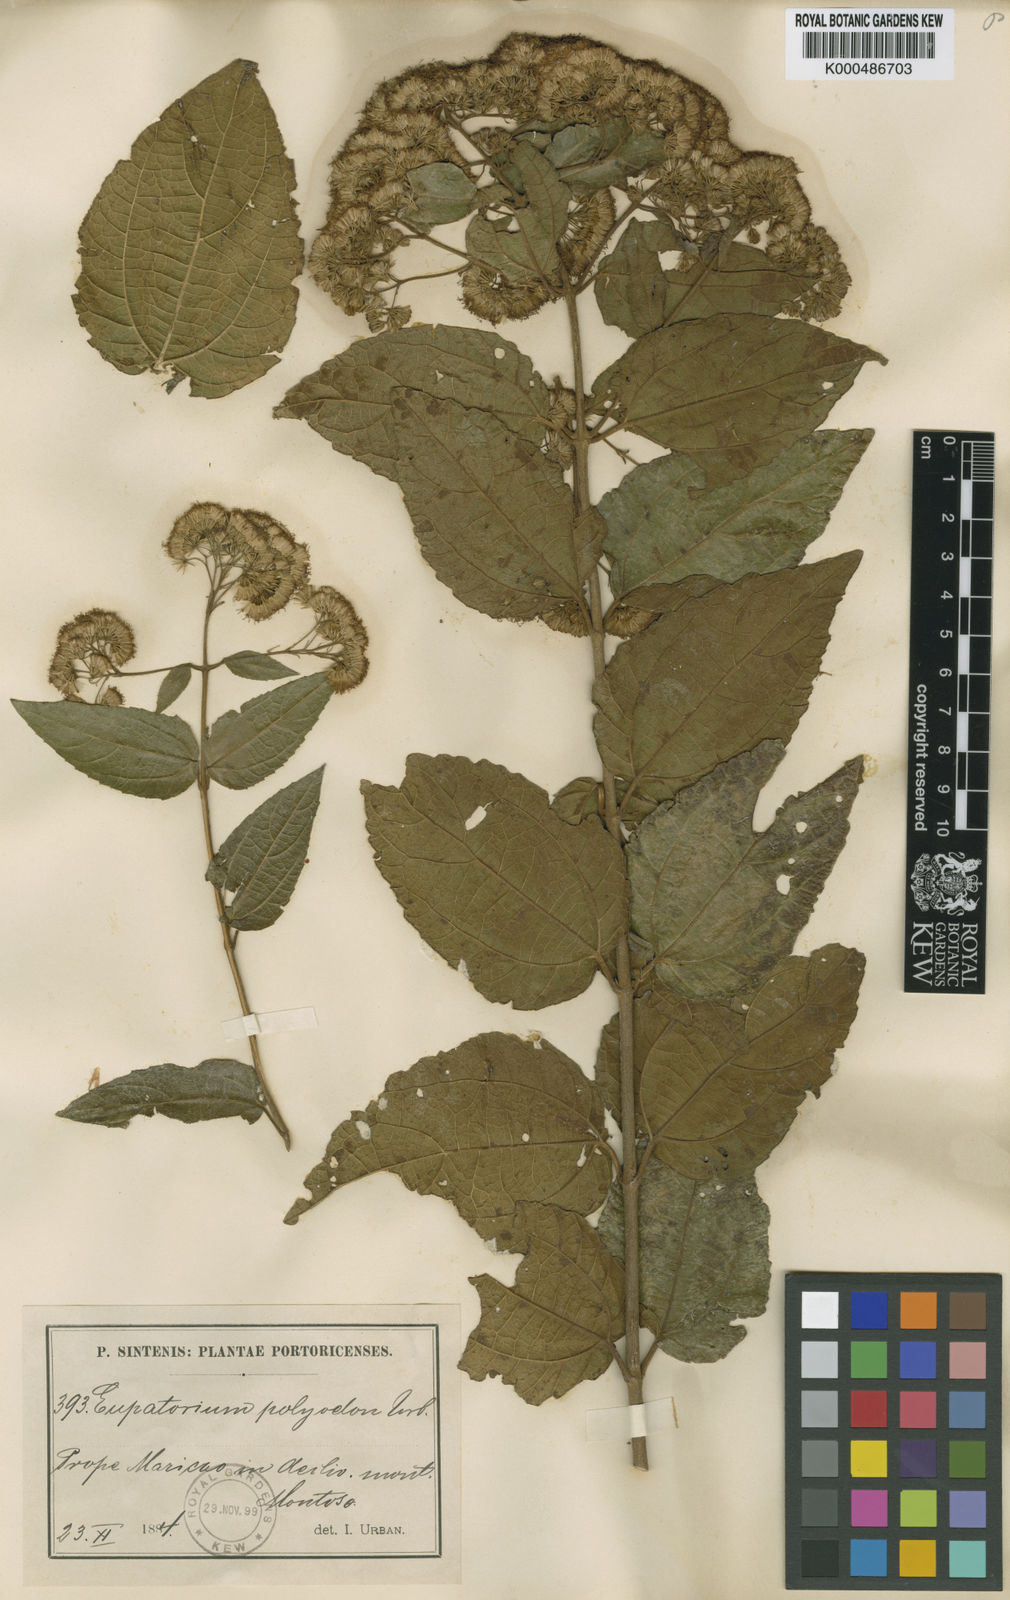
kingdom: Plantae
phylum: Tracheophyta
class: Magnoliopsida
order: Asterales
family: Asteraceae
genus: Koanophyllon
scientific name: Koanophyllon polyodon
